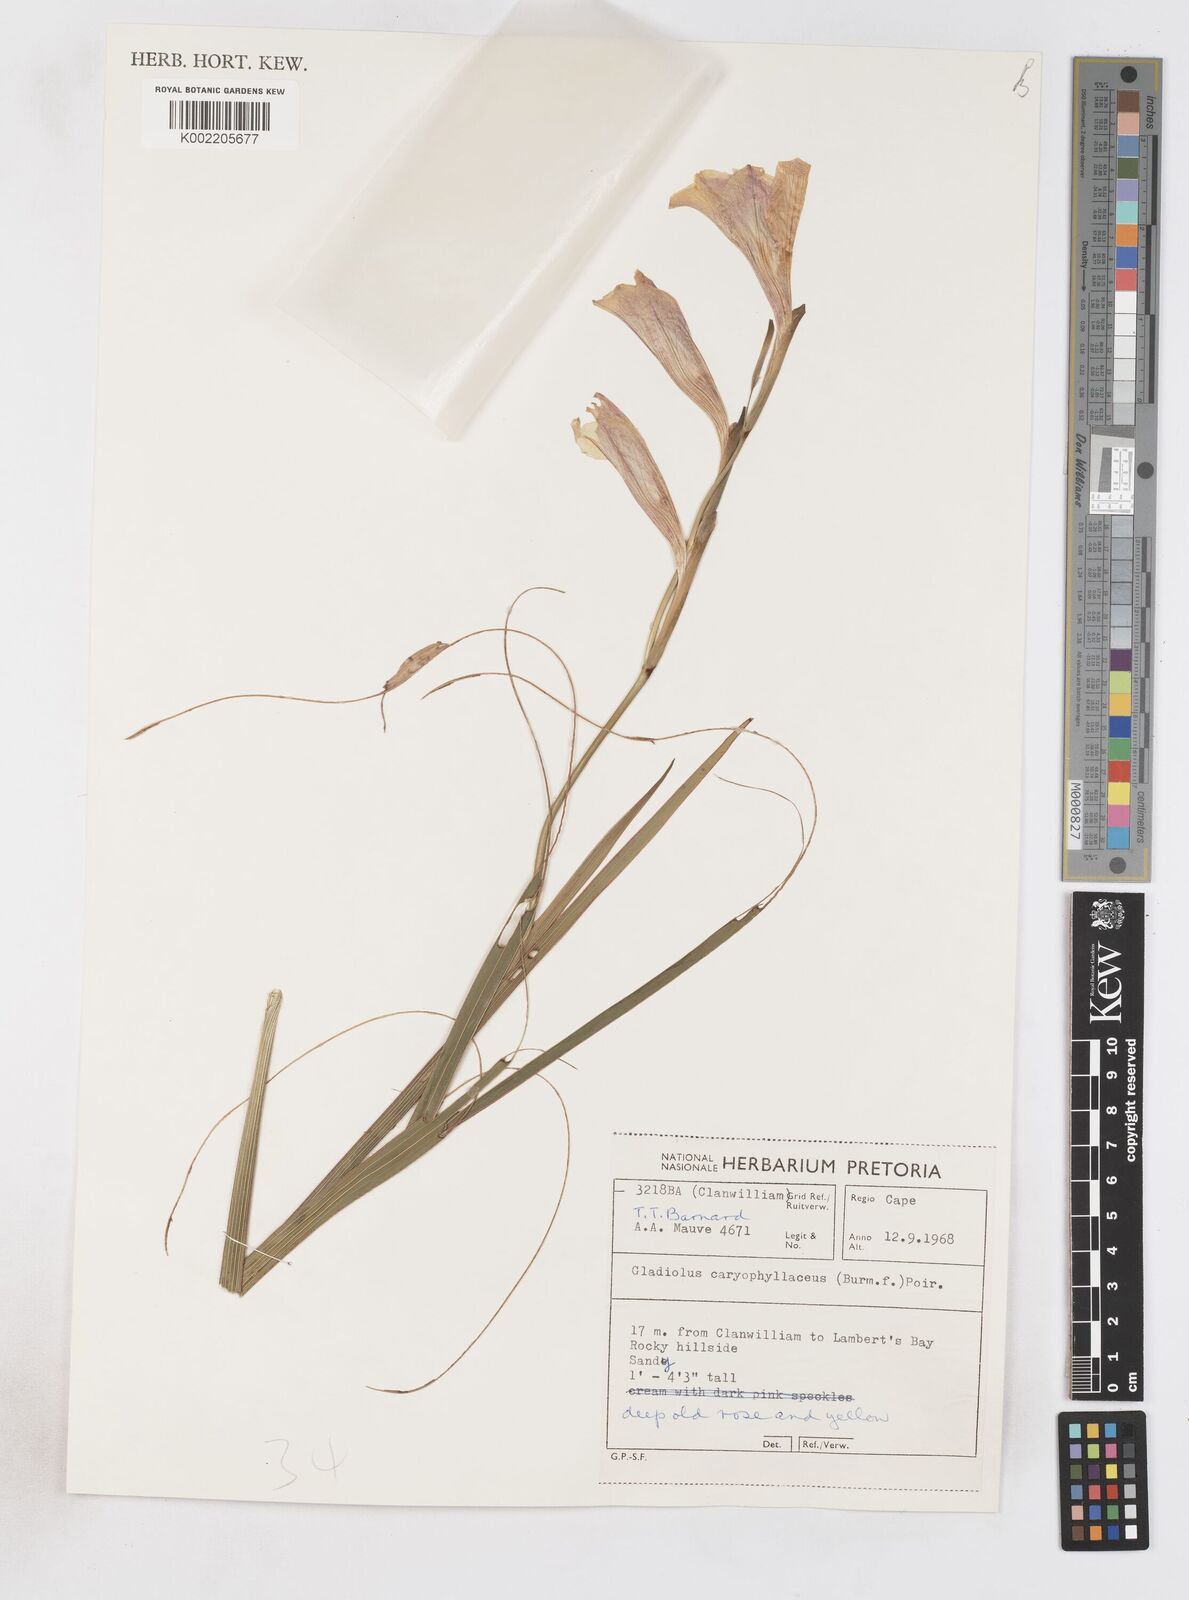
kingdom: Plantae
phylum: Tracheophyta
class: Liliopsida
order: Asparagales
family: Iridaceae
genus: Gladiolus
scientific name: Gladiolus caryophyllaceus
